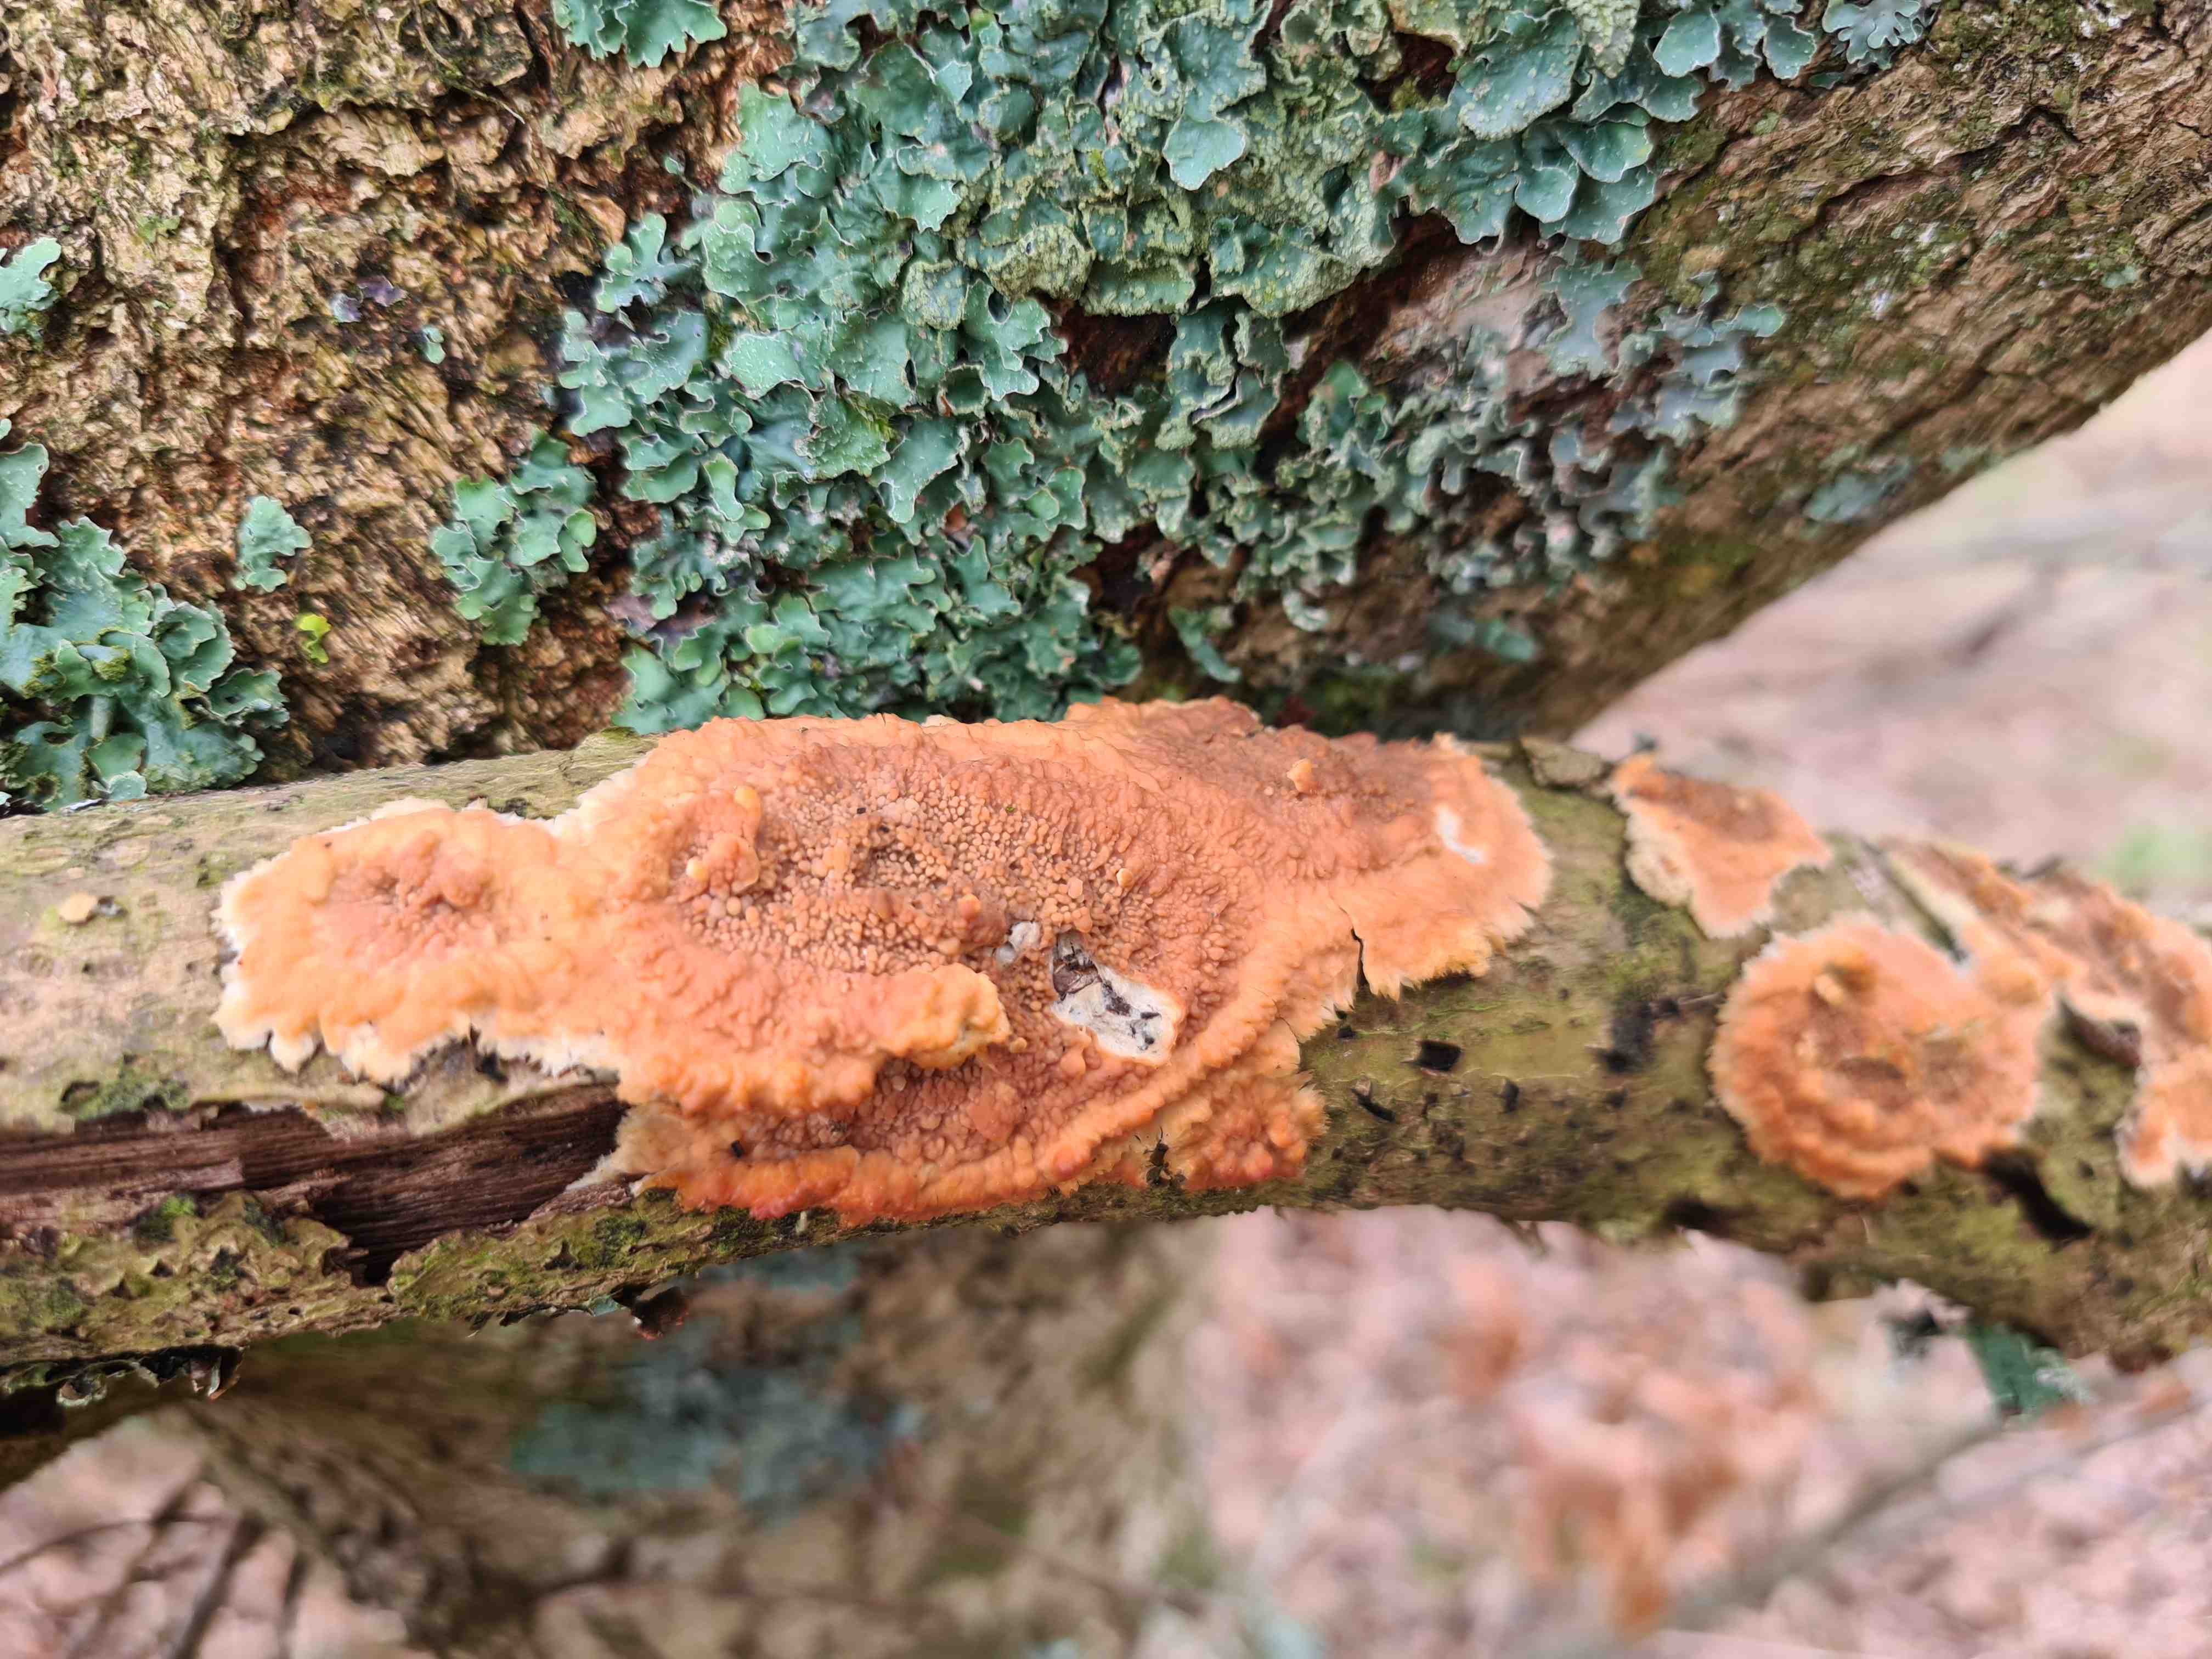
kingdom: Fungi
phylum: Basidiomycota
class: Agaricomycetes
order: Polyporales
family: Meruliaceae
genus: Phlebia
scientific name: Phlebia radiata
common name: stråle-åresvamp
